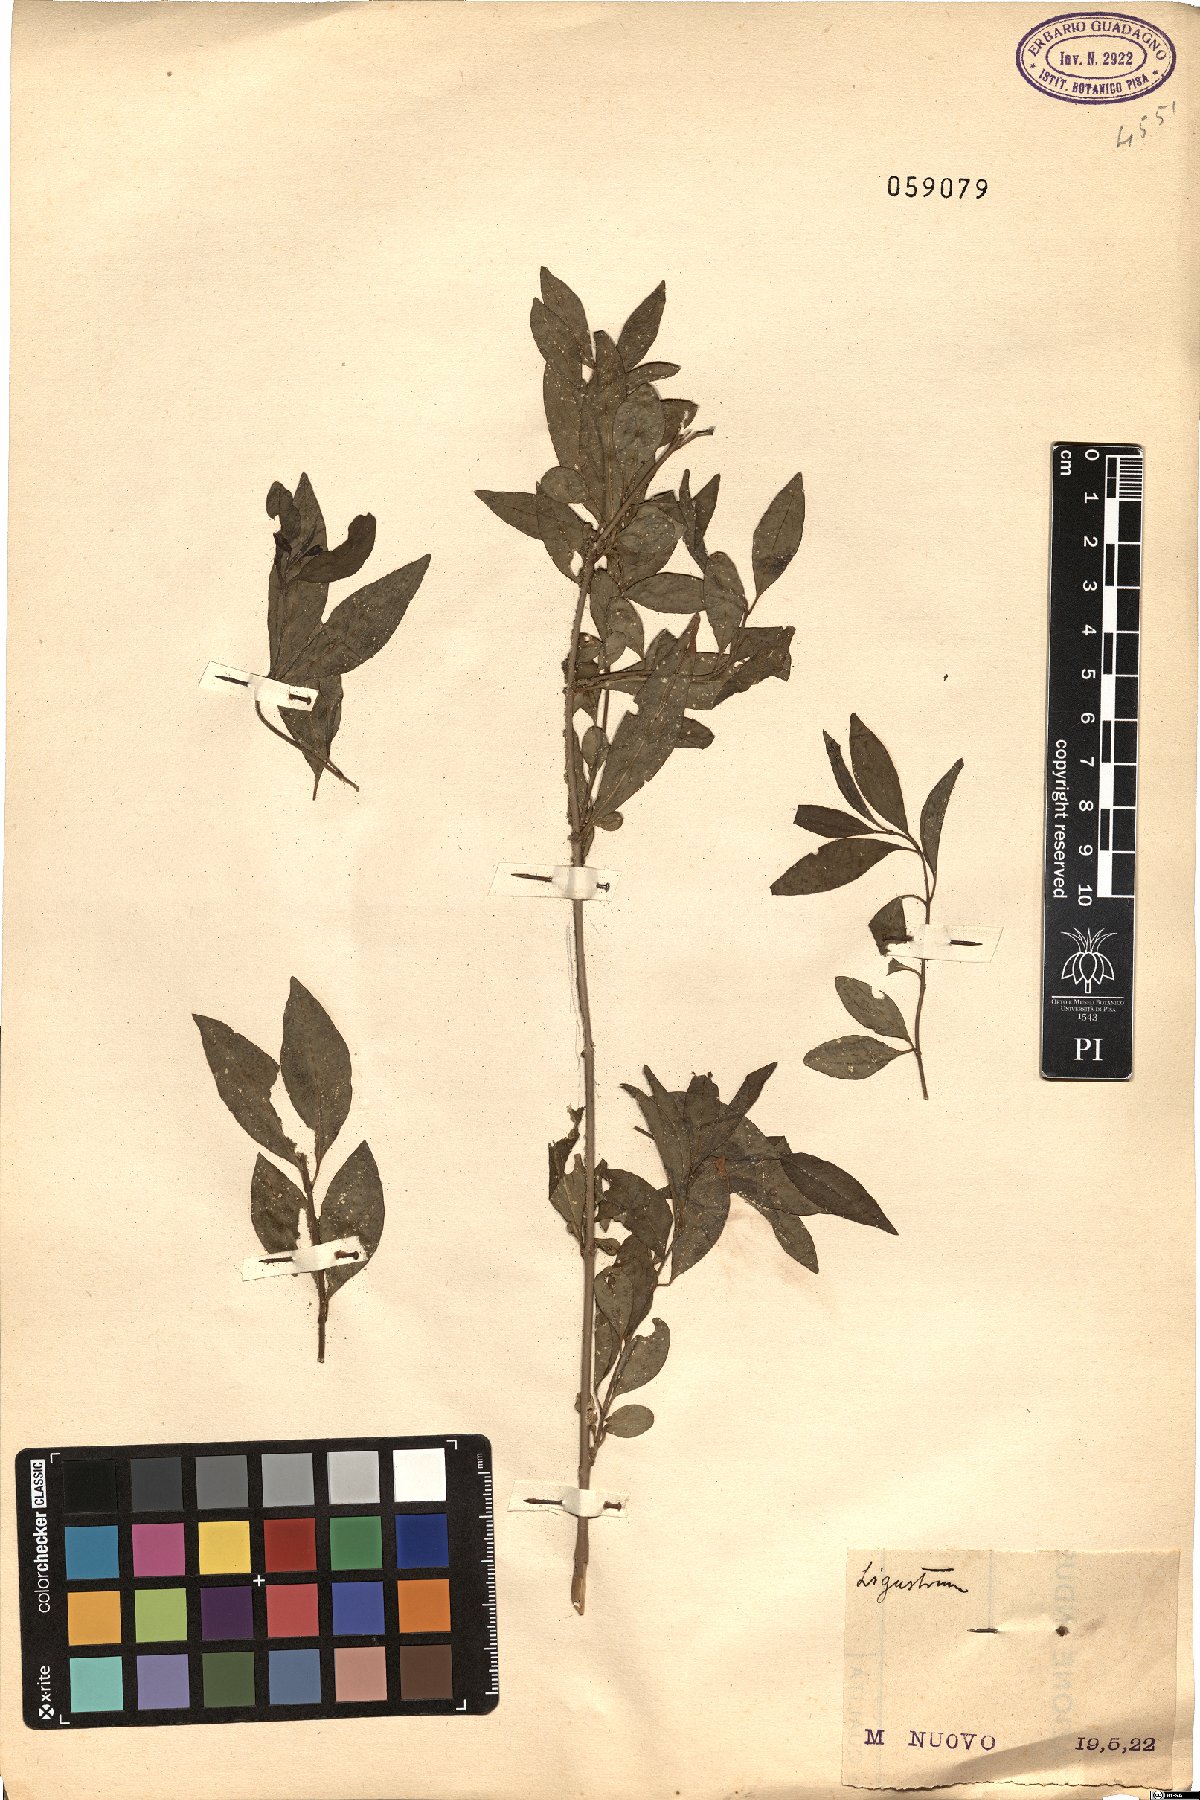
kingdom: Plantae
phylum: Tracheophyta
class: Magnoliopsida
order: Lamiales
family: Oleaceae
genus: Ligustrum
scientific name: Ligustrum
